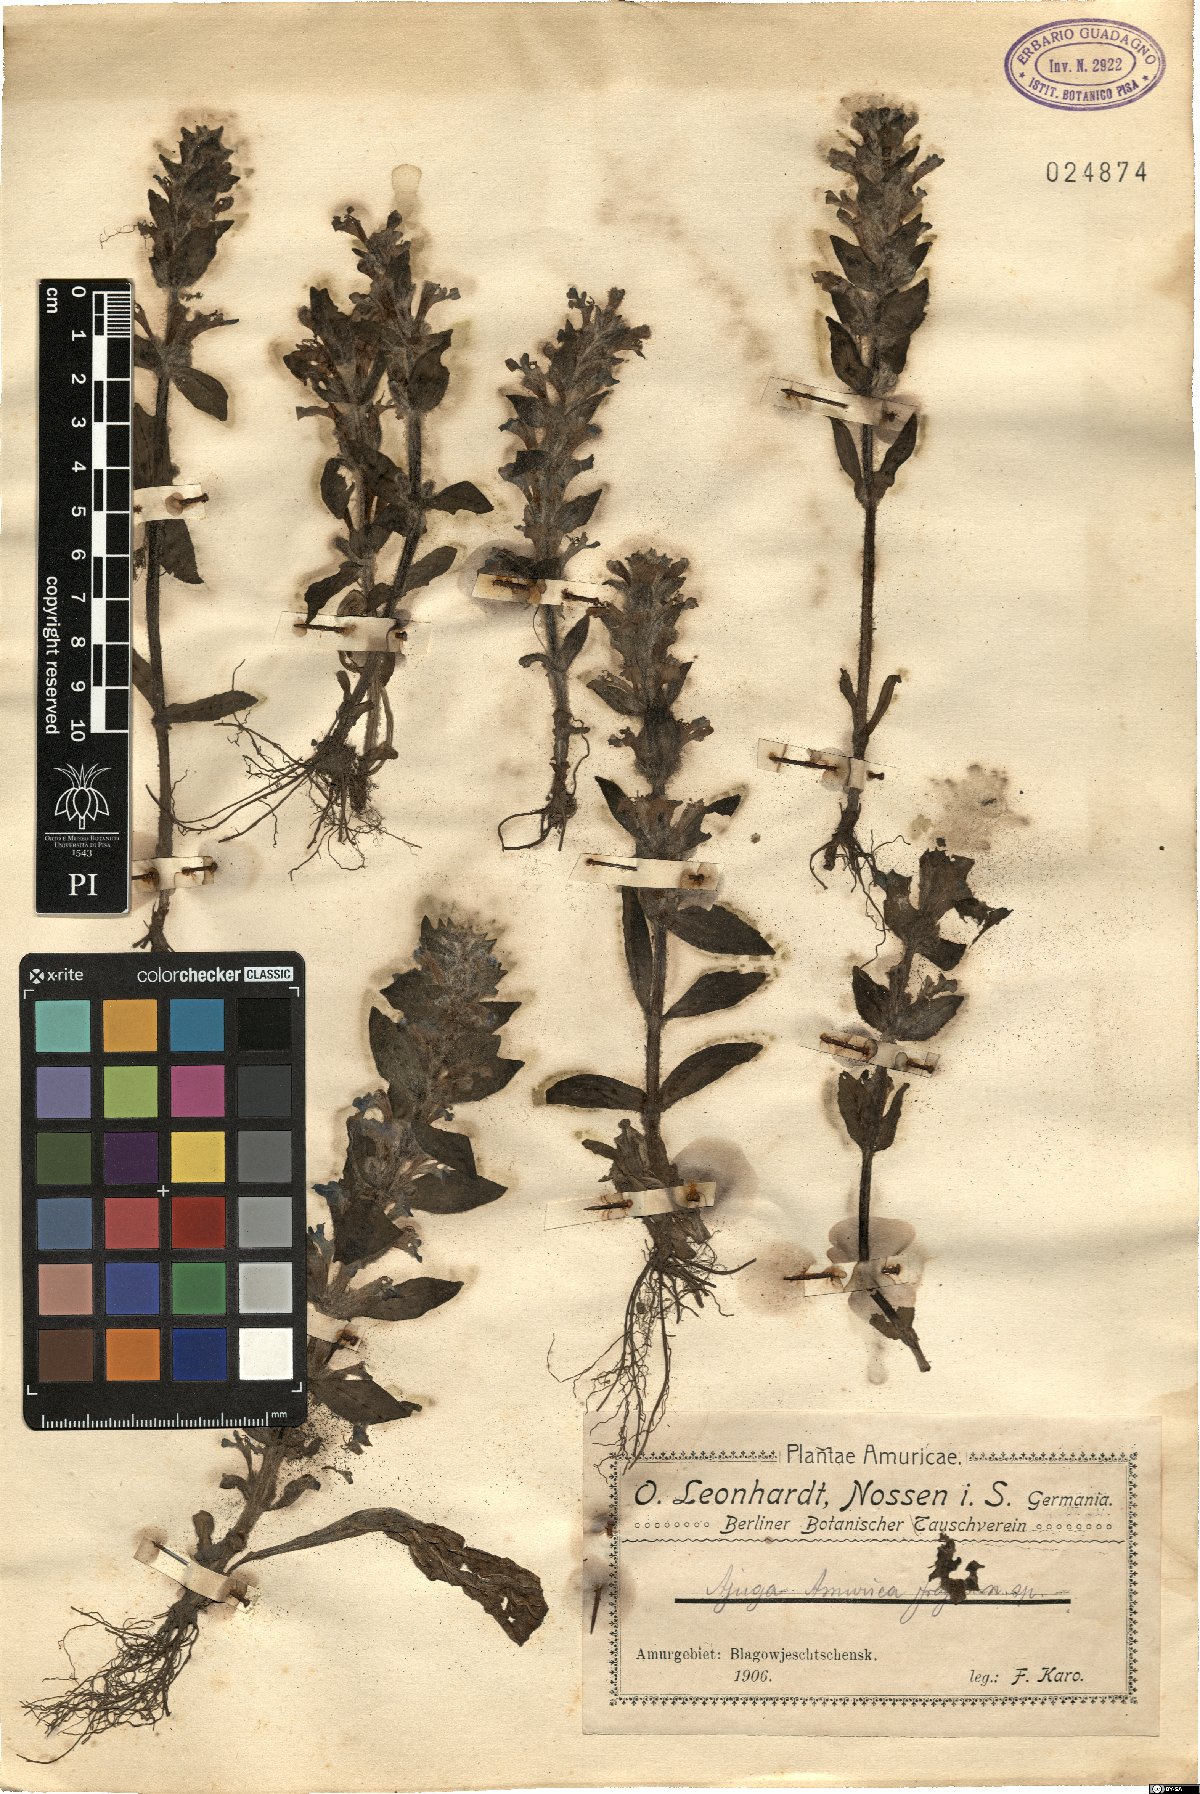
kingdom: Plantae
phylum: Tracheophyta
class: Magnoliopsida
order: Lamiales
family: Lamiaceae
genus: Ajuga
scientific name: Ajuga multiflora
